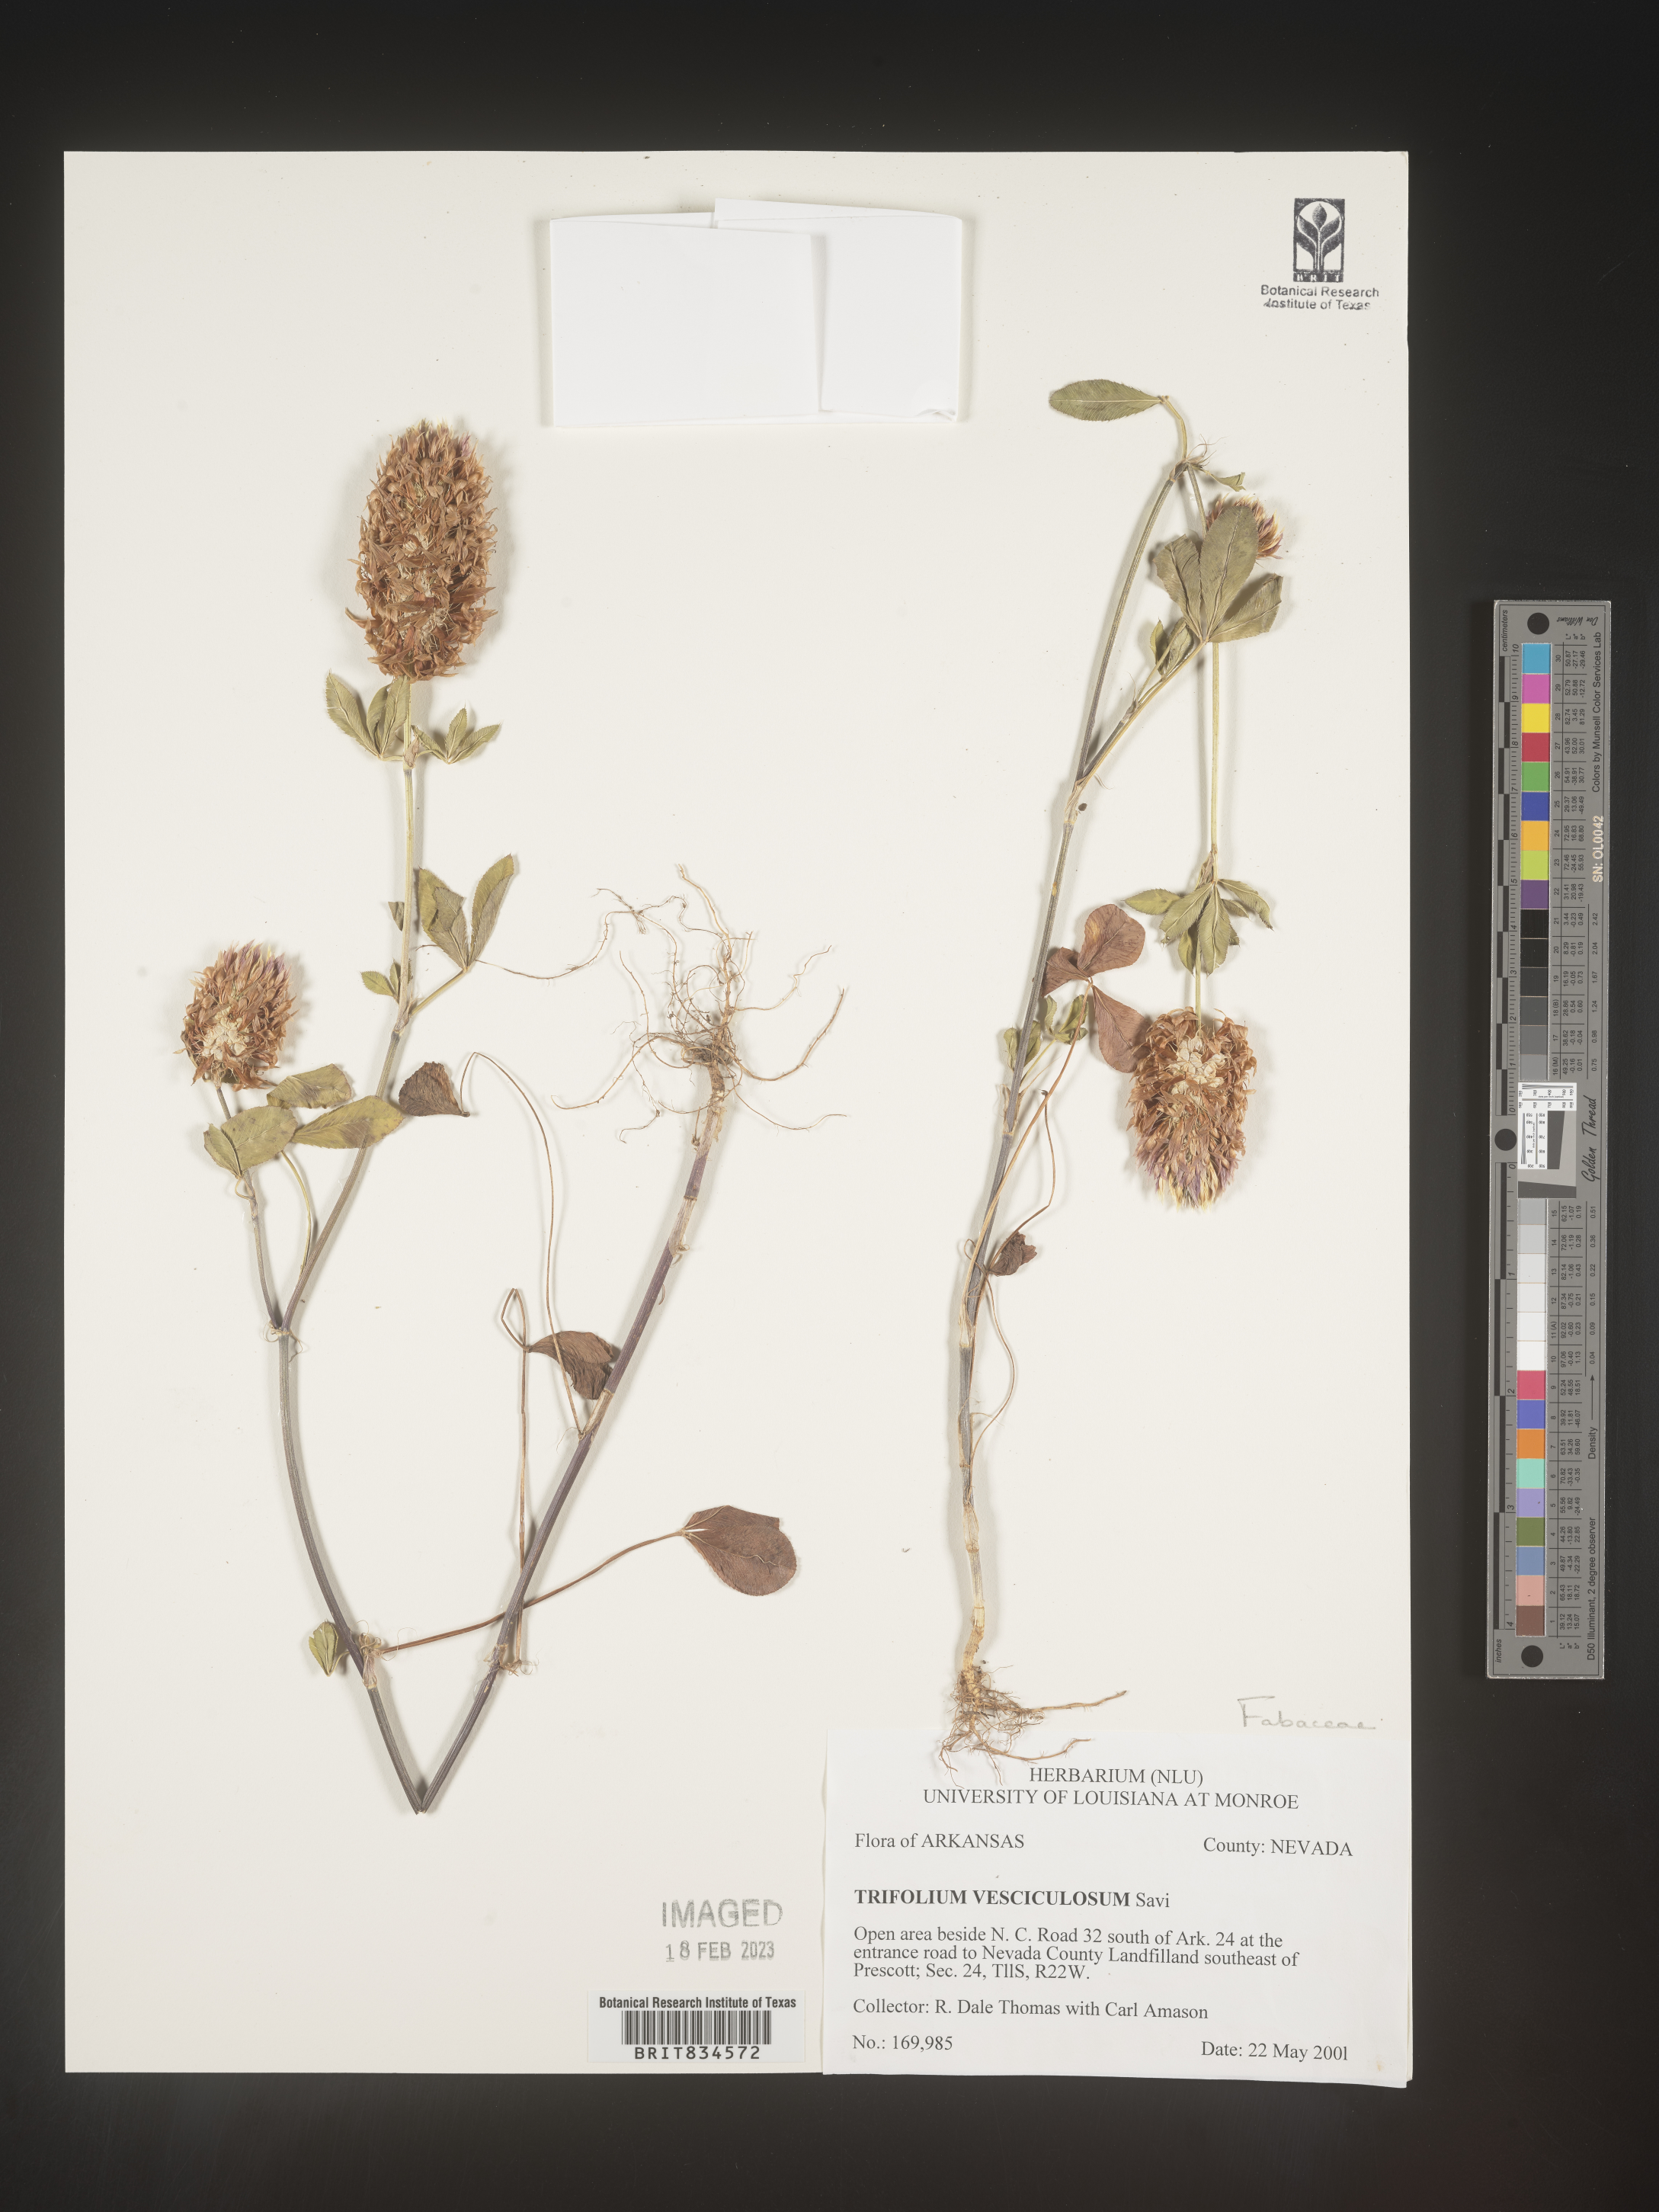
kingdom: Plantae
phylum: Tracheophyta
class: Magnoliopsida
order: Fabales
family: Fabaceae
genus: Trifolium
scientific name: Trifolium
